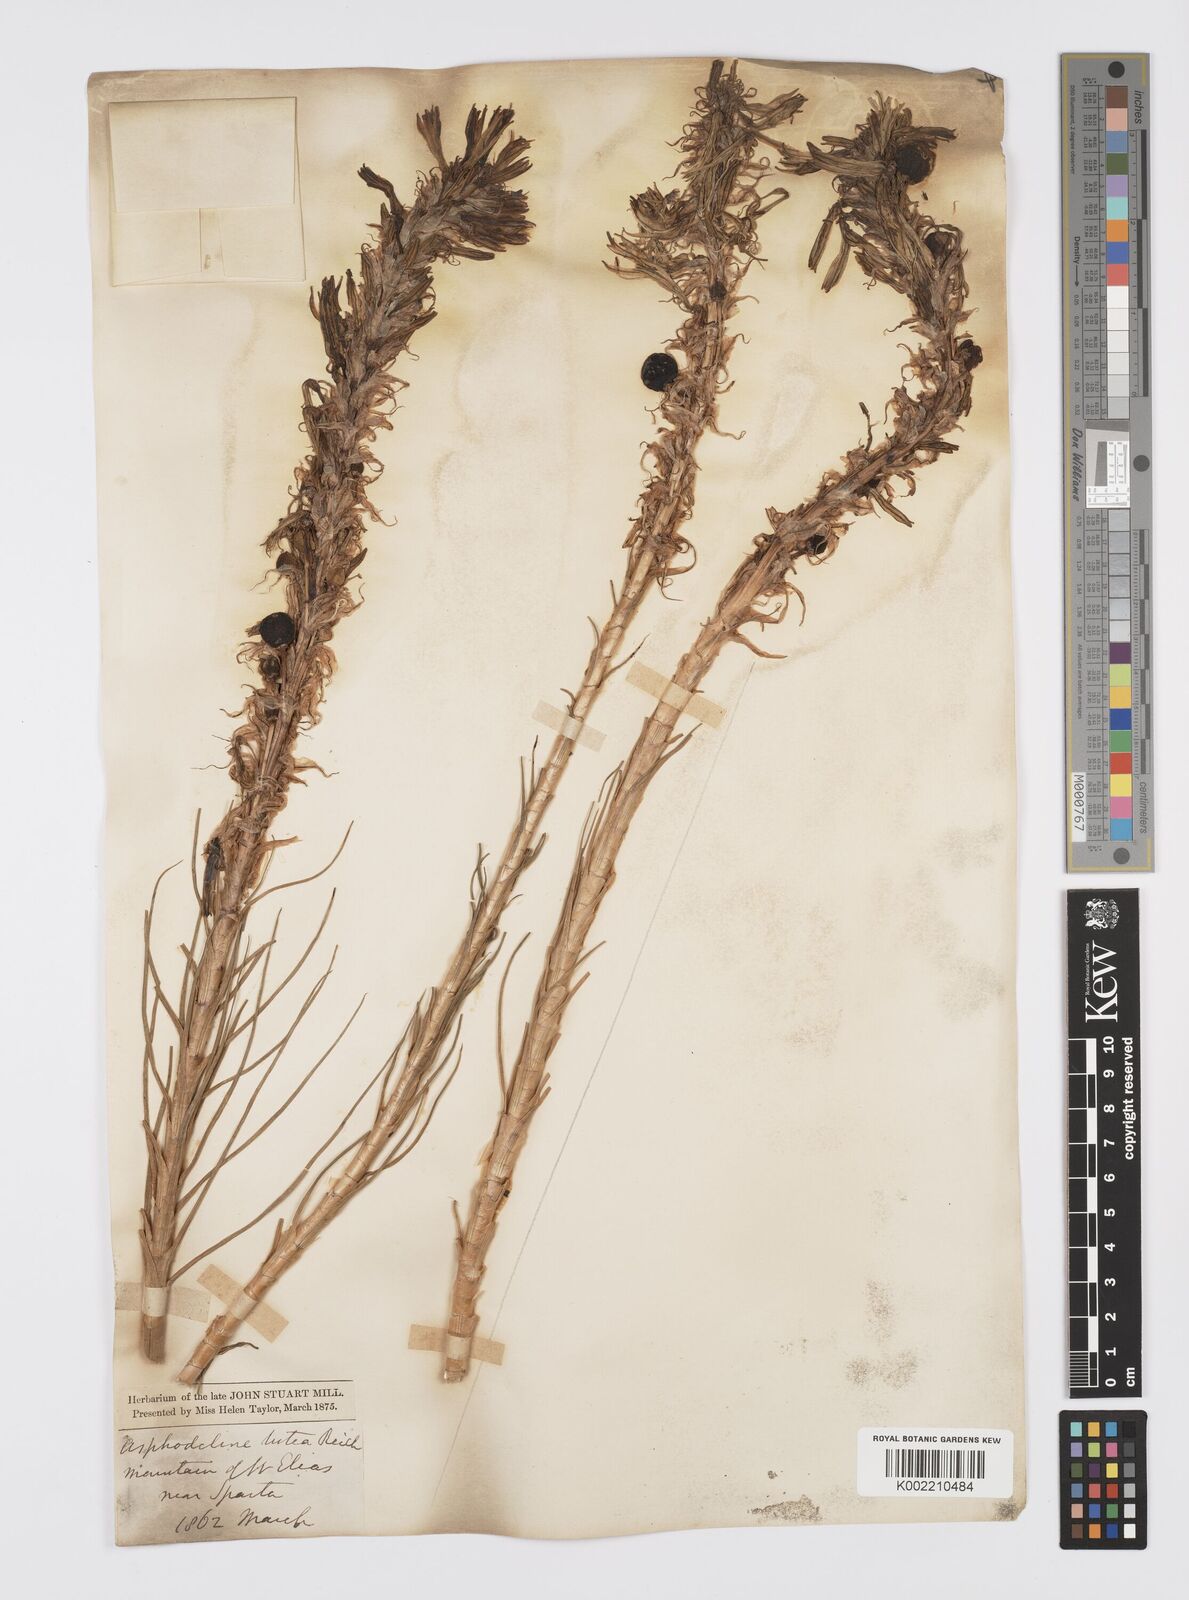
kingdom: Plantae
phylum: Tracheophyta
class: Liliopsida
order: Asparagales
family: Asphodelaceae
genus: Asphodeline
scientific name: Asphodeline lutea
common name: Yellow asphodel
